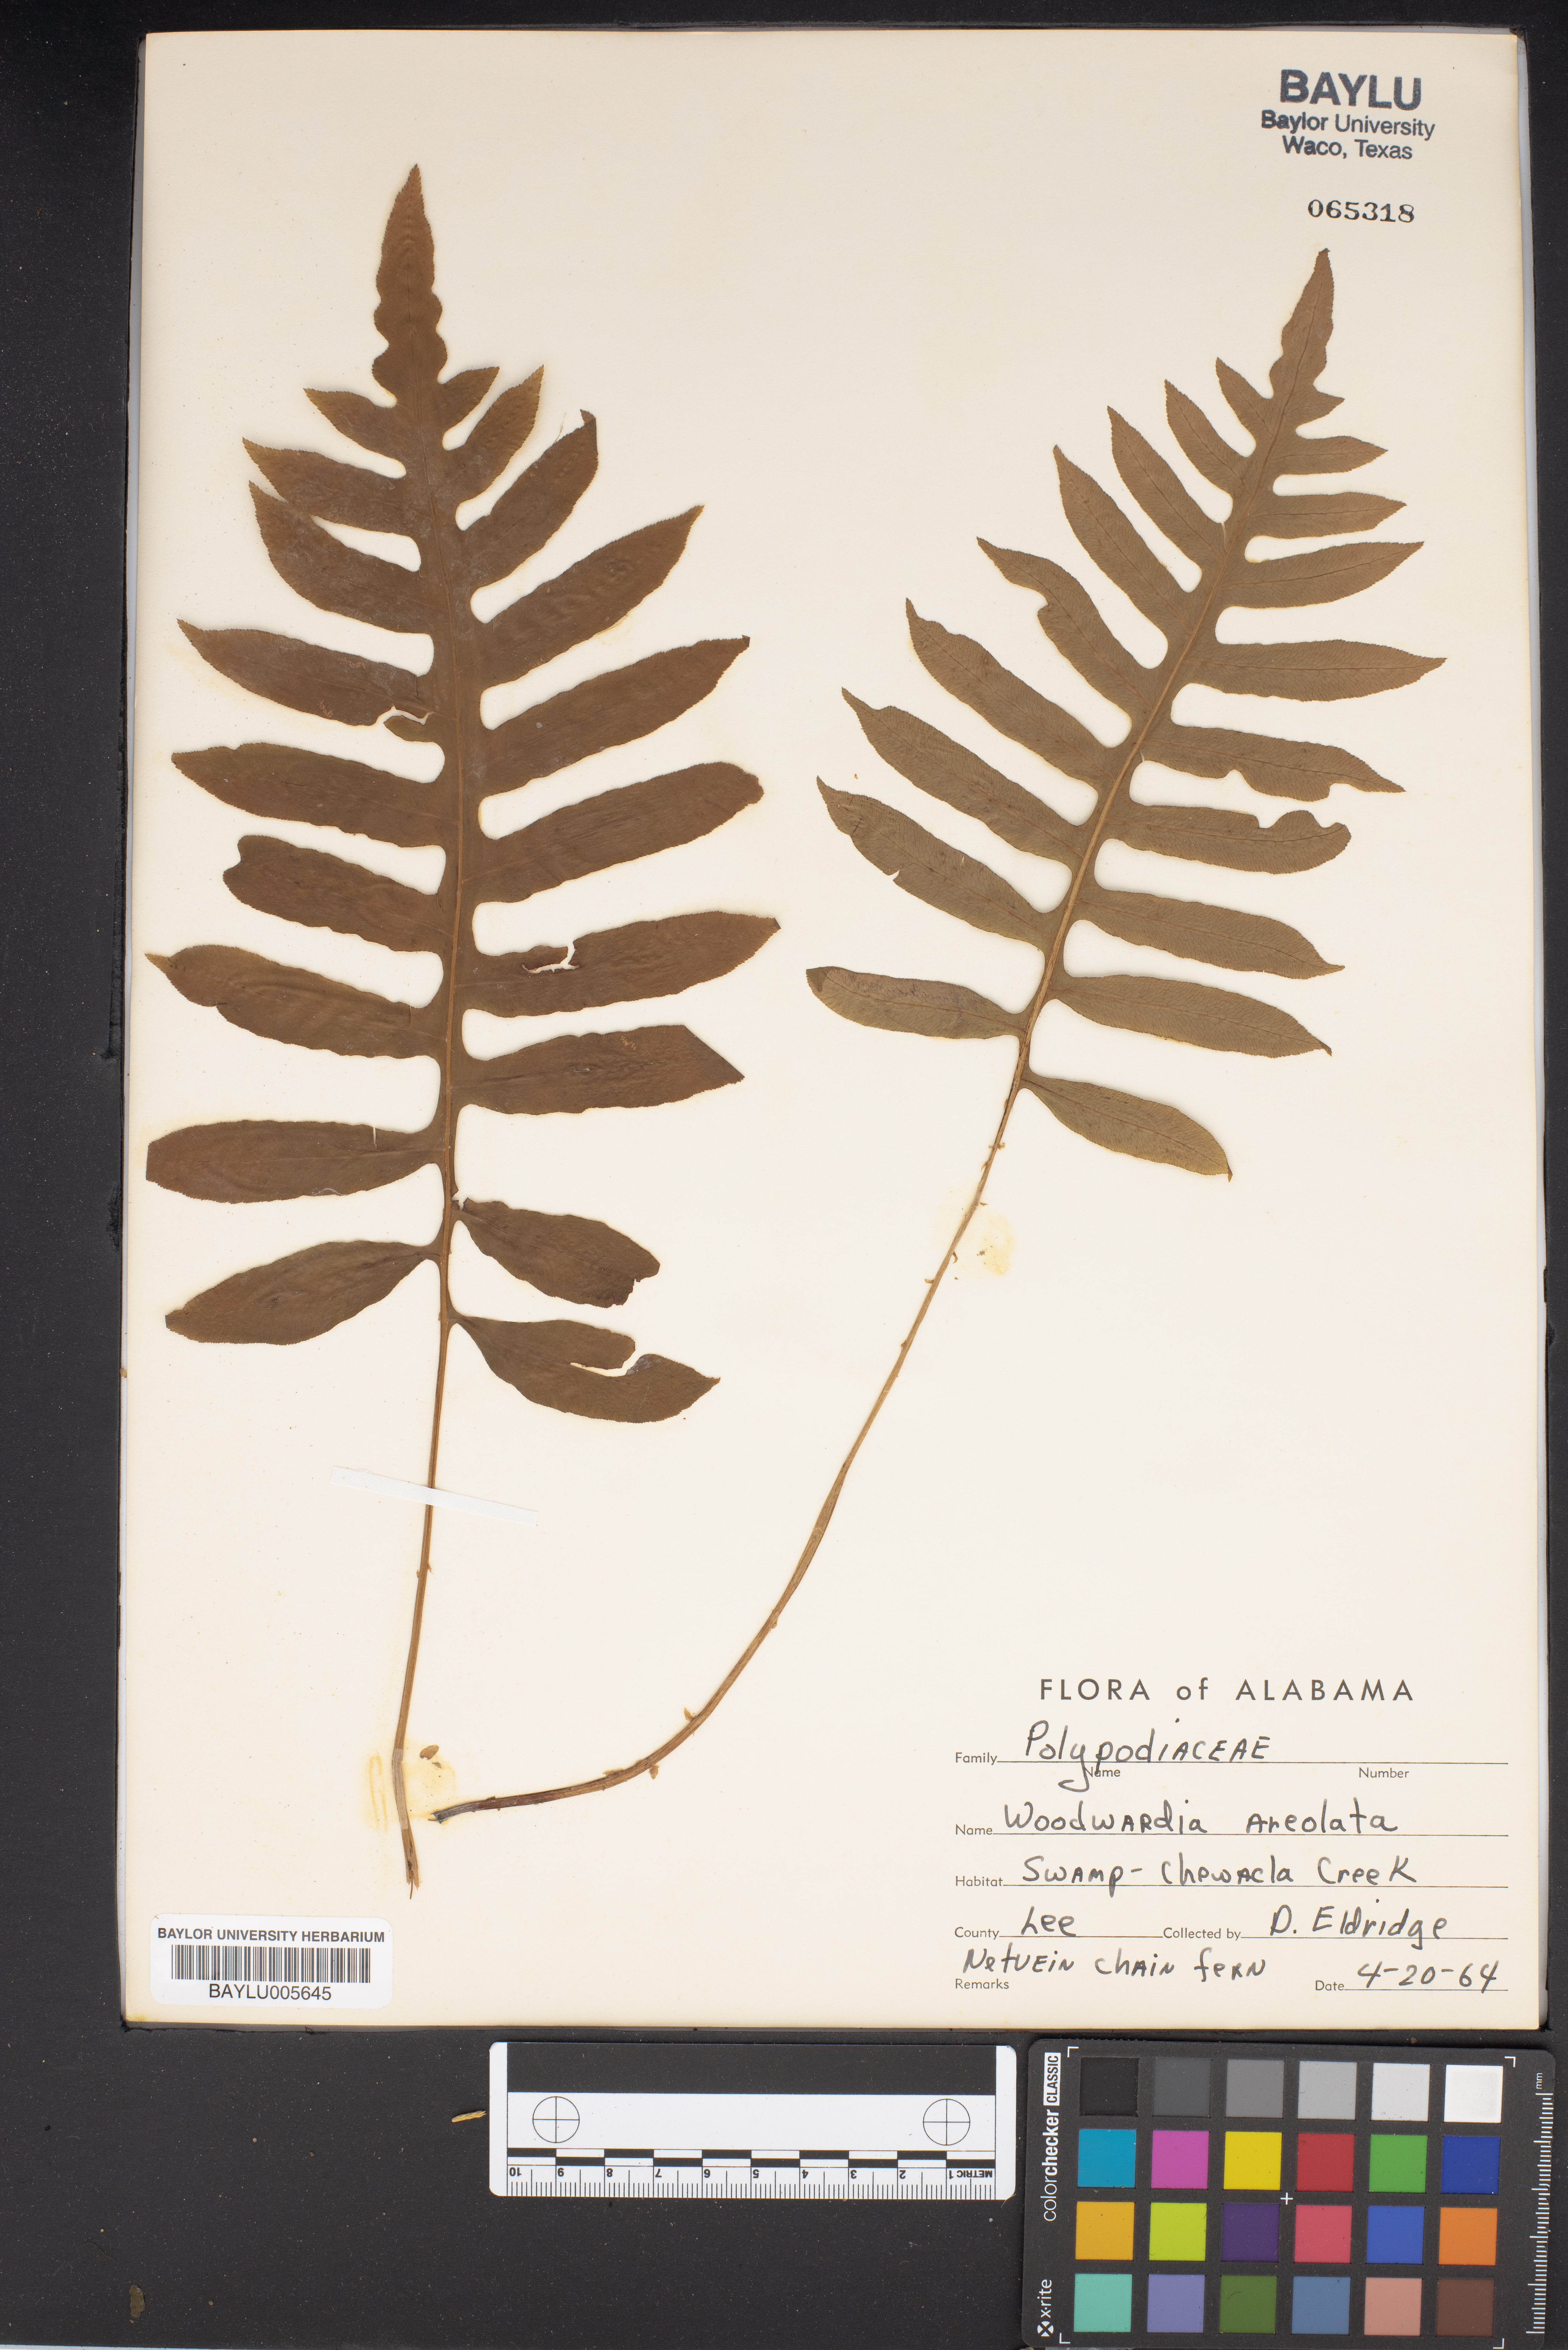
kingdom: Plantae
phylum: Tracheophyta
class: Polypodiopsida
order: Polypodiales
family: Blechnaceae
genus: Lorinseria
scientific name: Lorinseria areolata
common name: Dwarf chain fern
